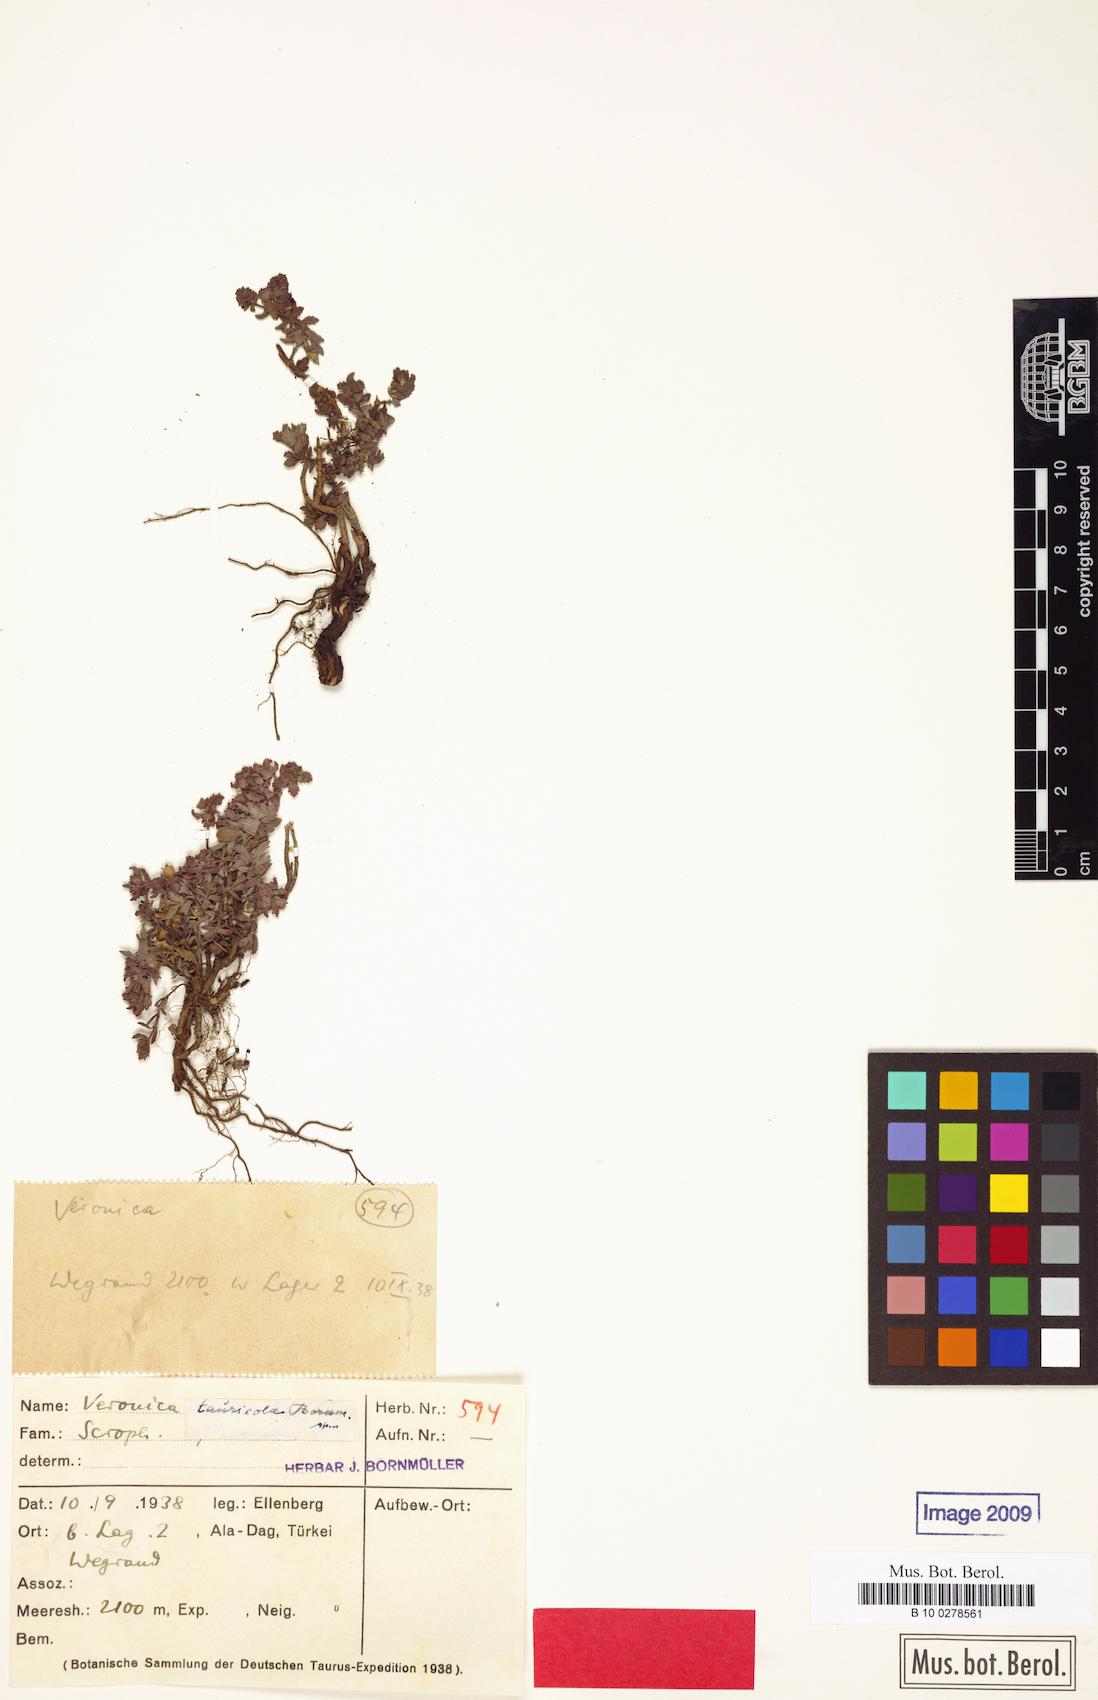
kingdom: Plantae
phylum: Tracheophyta
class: Magnoliopsida
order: Lamiales
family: Plantaginaceae
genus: Veronica
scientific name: Veronica tauricola
